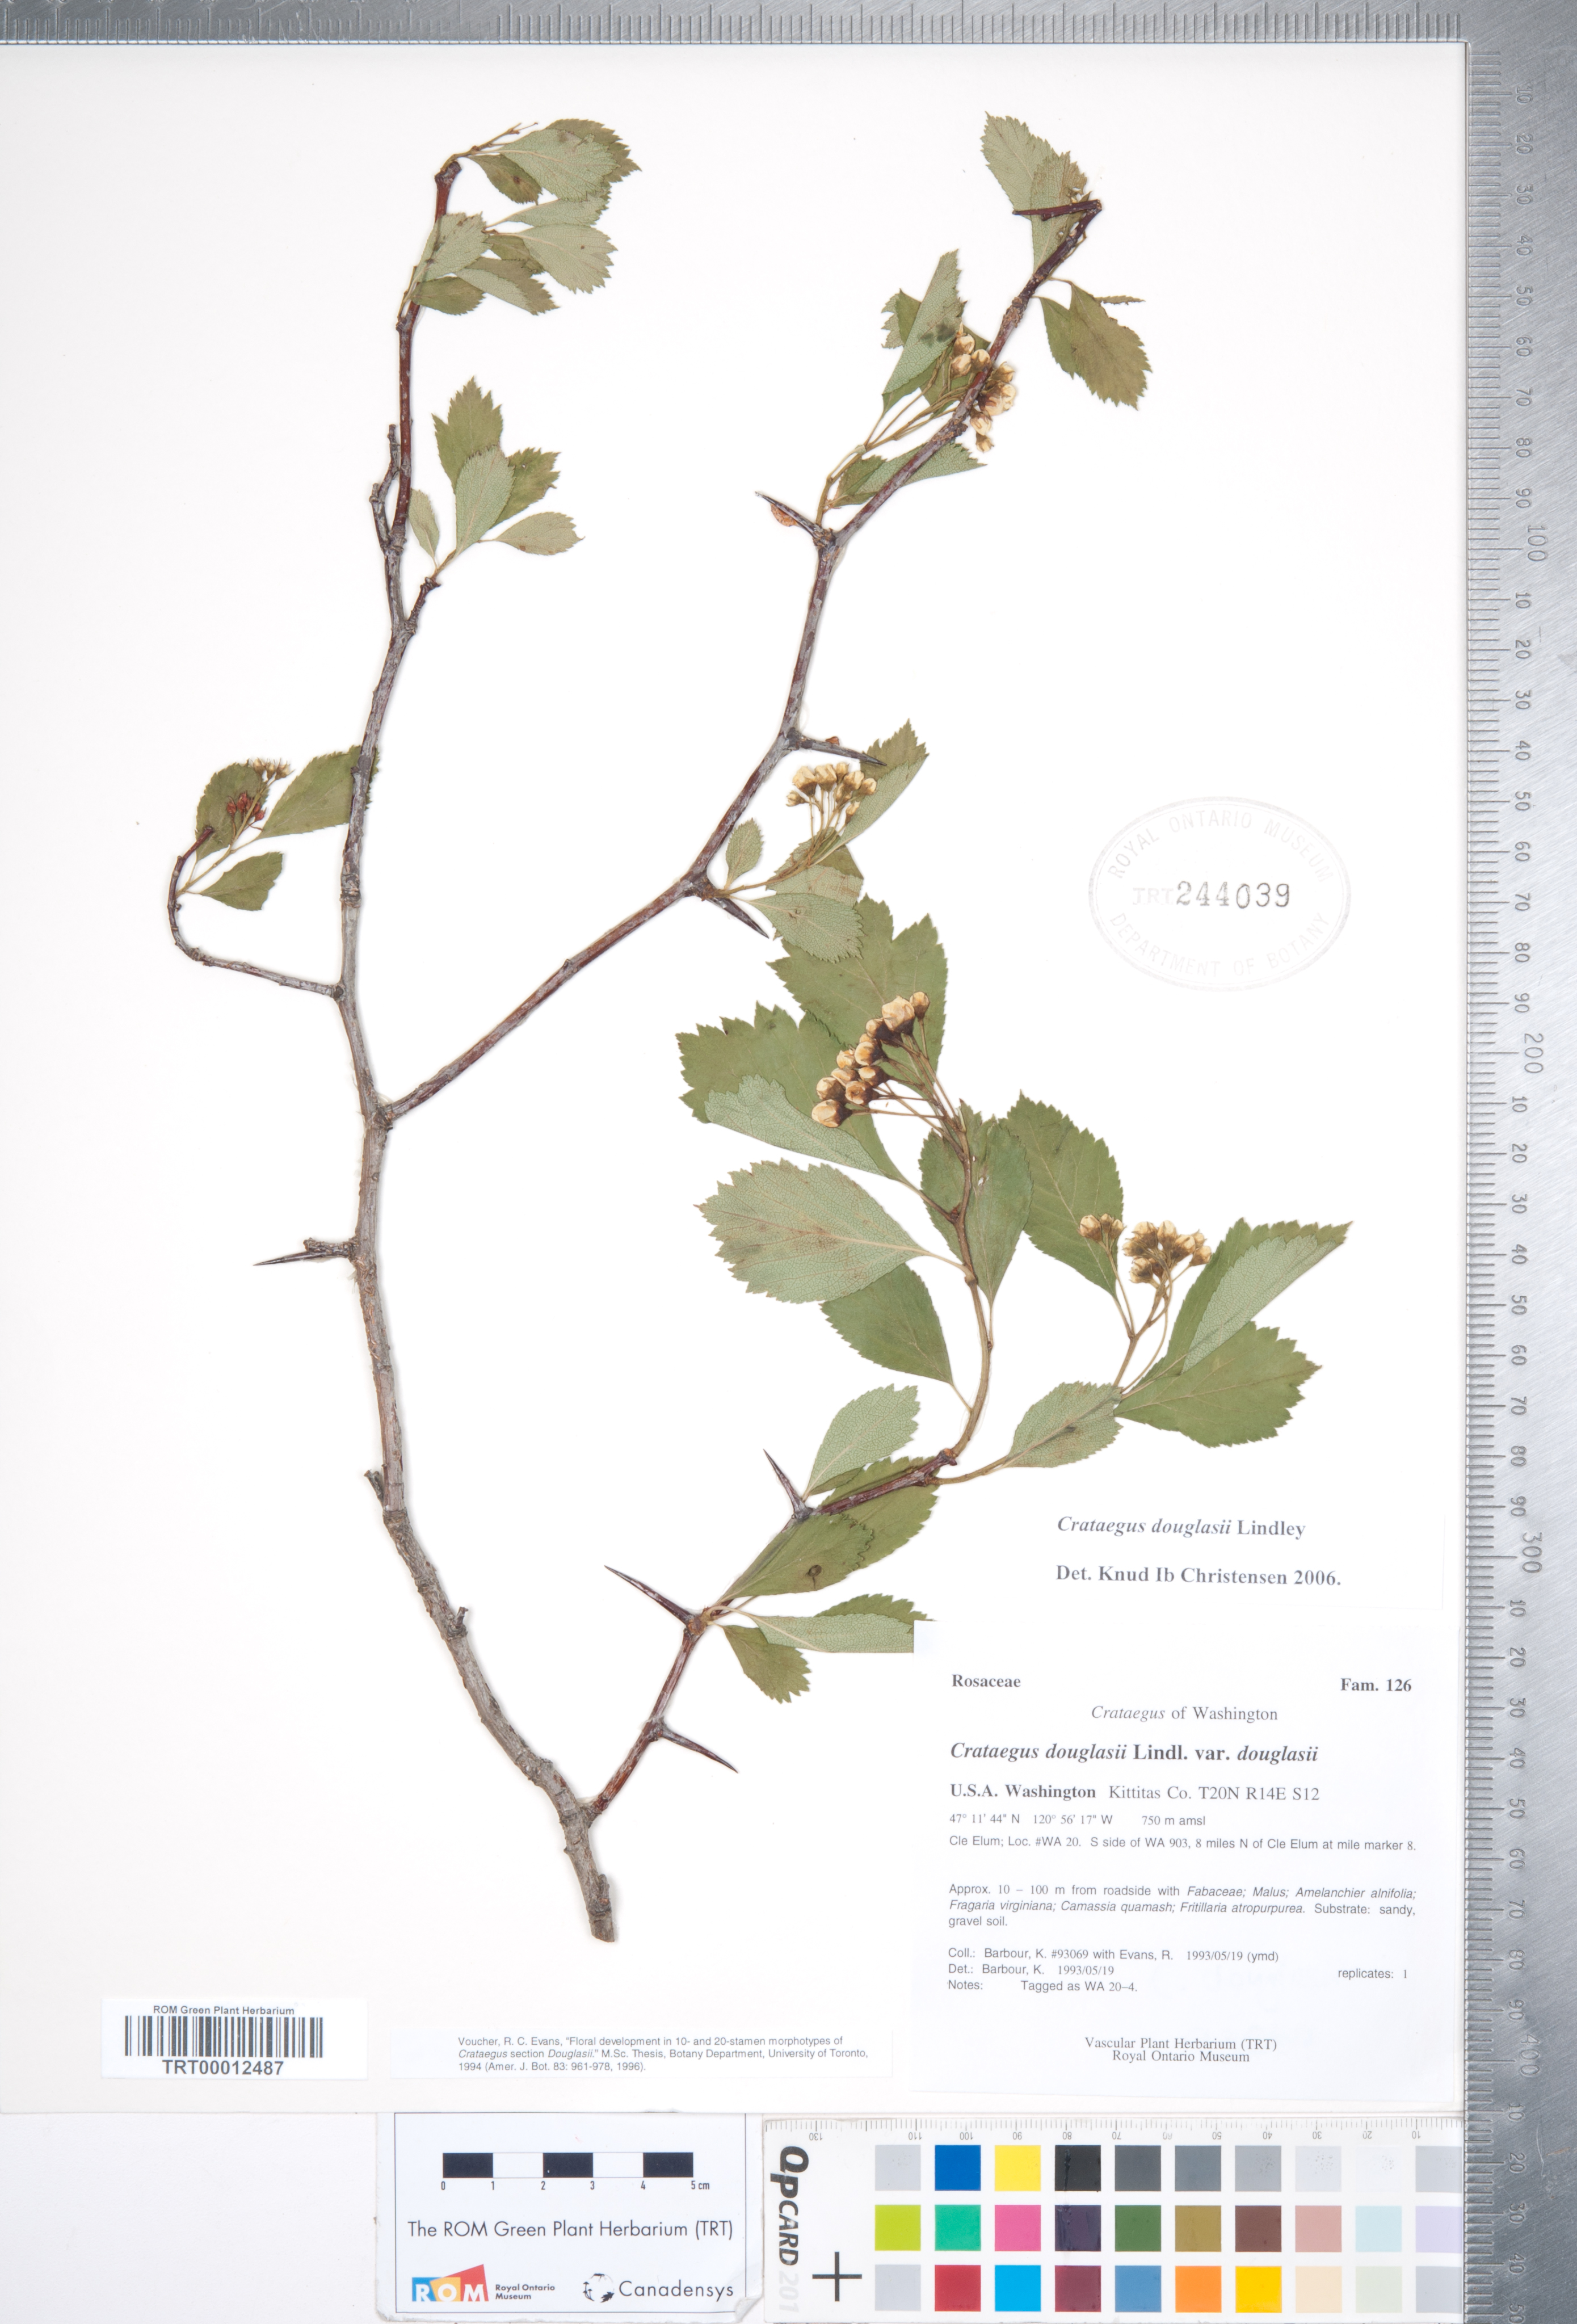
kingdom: Plantae
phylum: Tracheophyta
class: Magnoliopsida
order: Rosales
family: Rosaceae
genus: Crataegus
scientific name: Crataegus douglasii
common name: Black hawthorn
